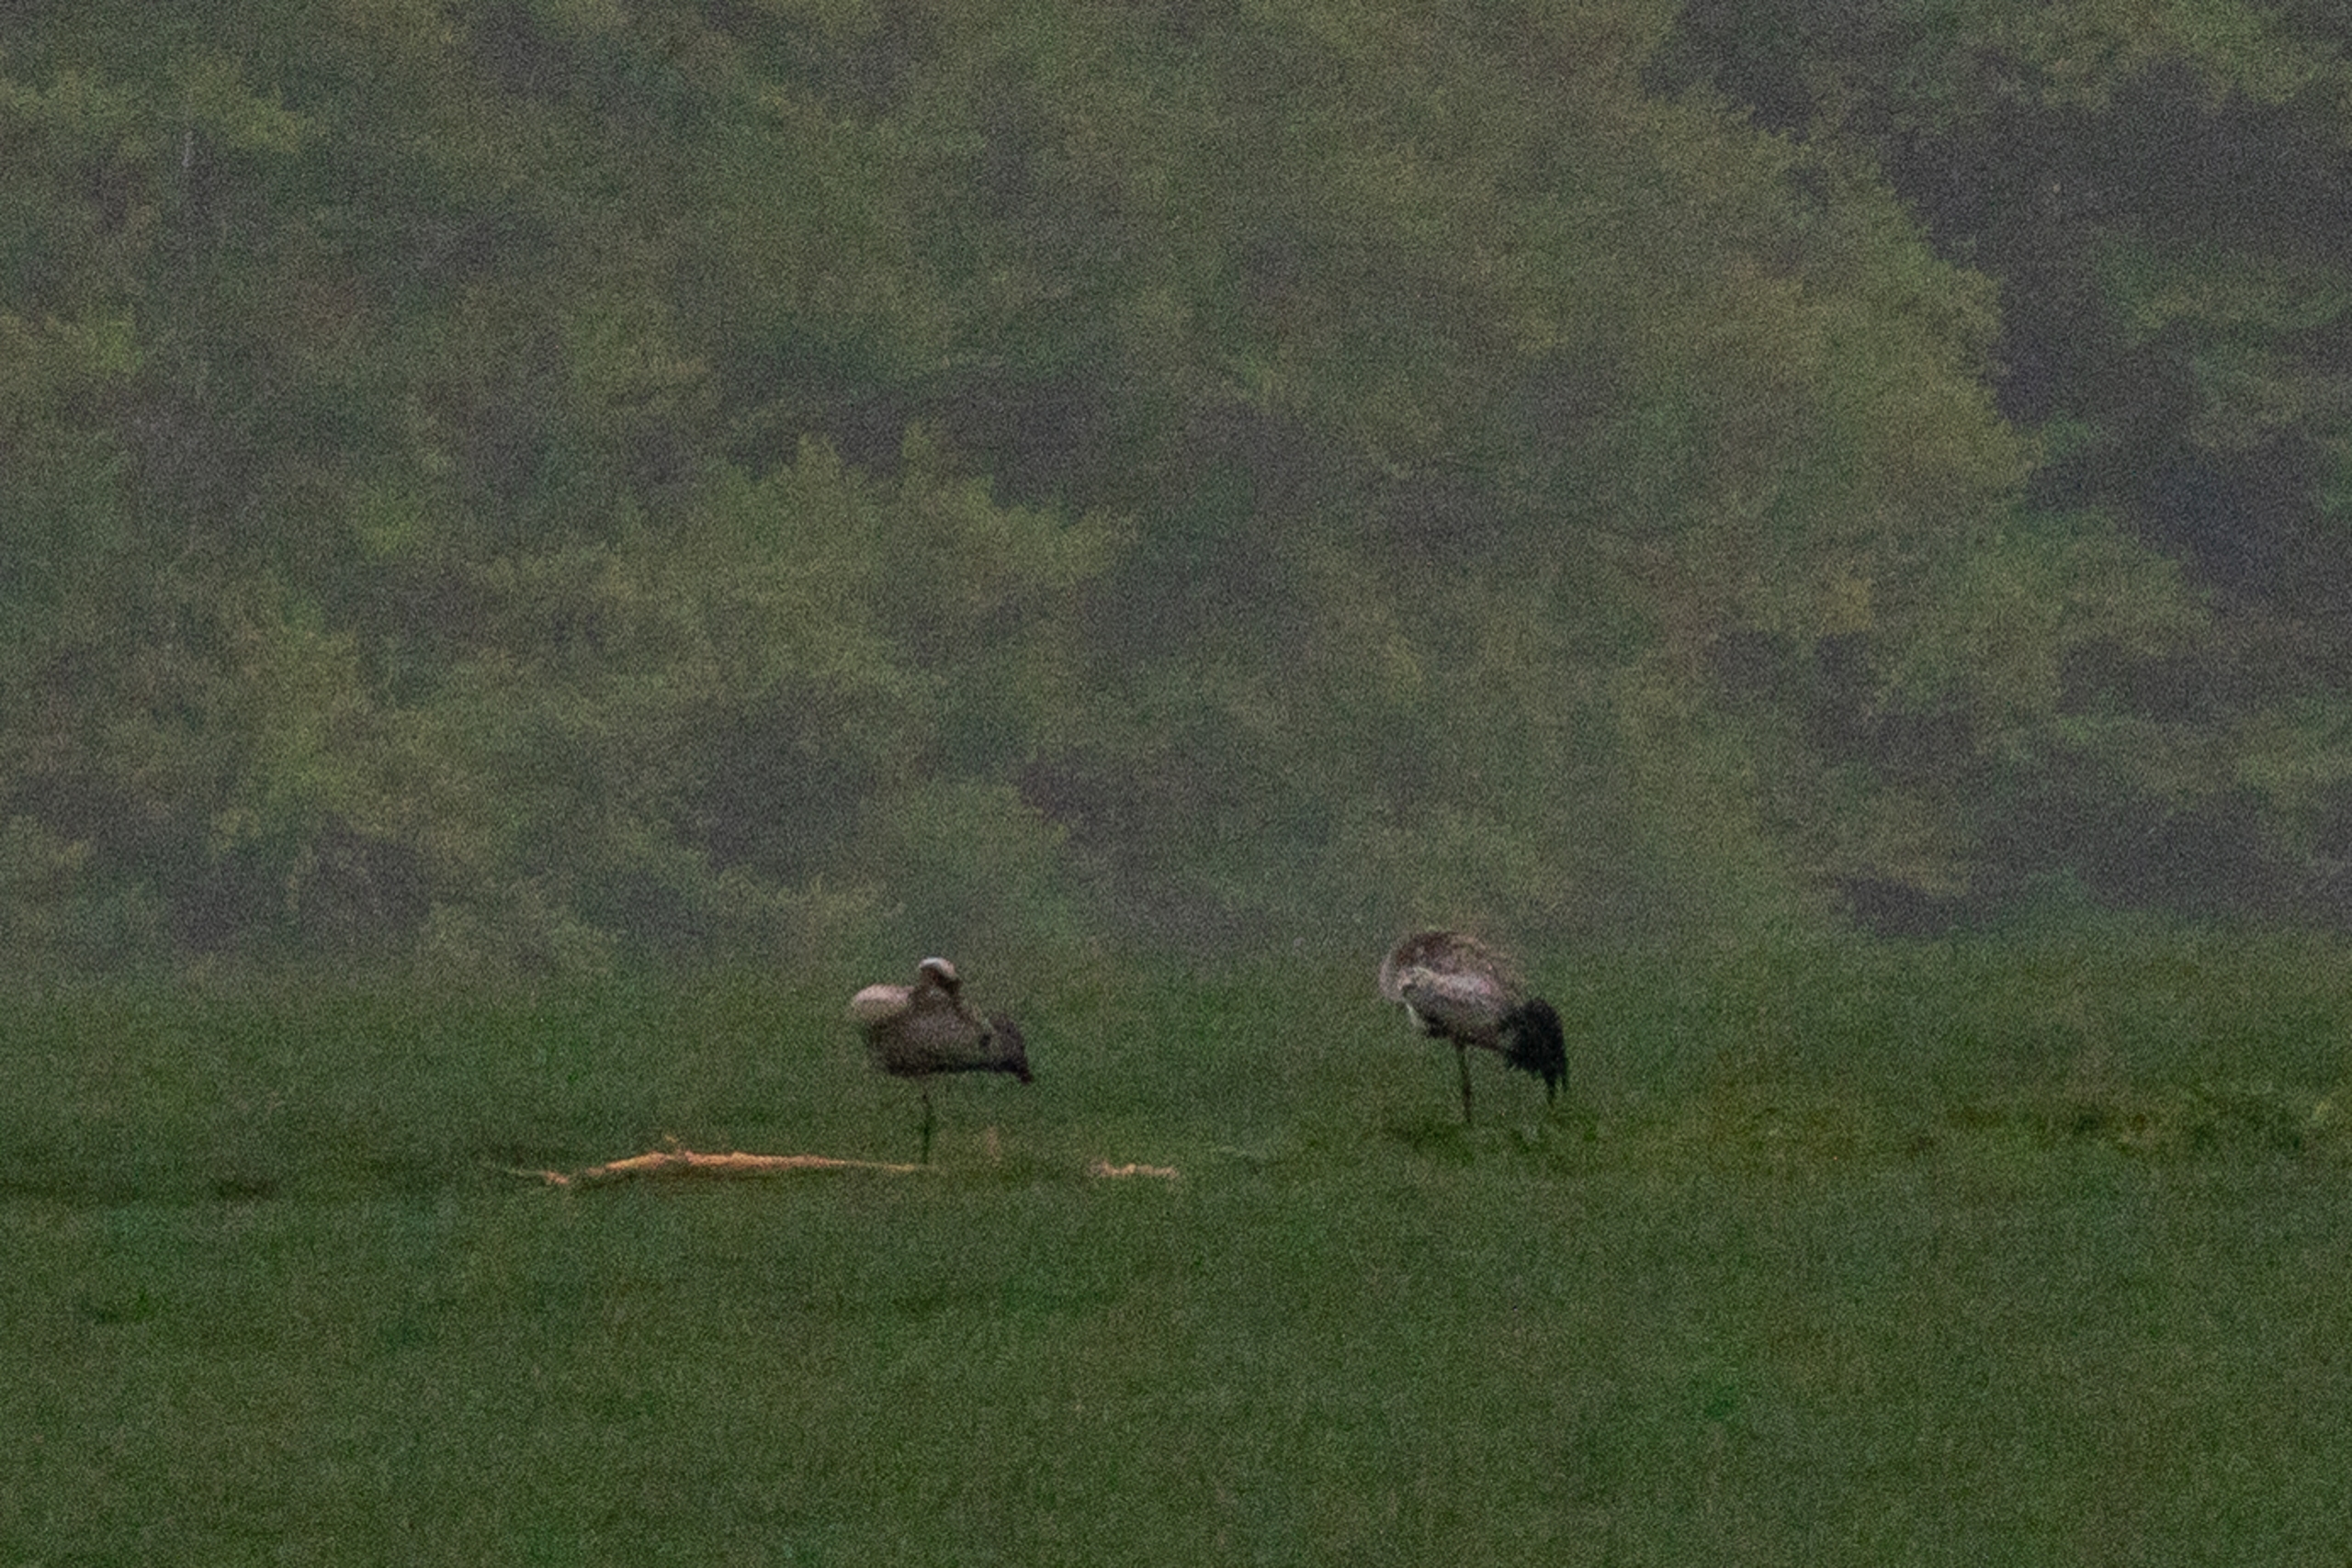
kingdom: Animalia
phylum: Chordata
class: Aves
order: Gruiformes
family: Gruidae
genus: Grus
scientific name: Grus grus
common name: Trane
